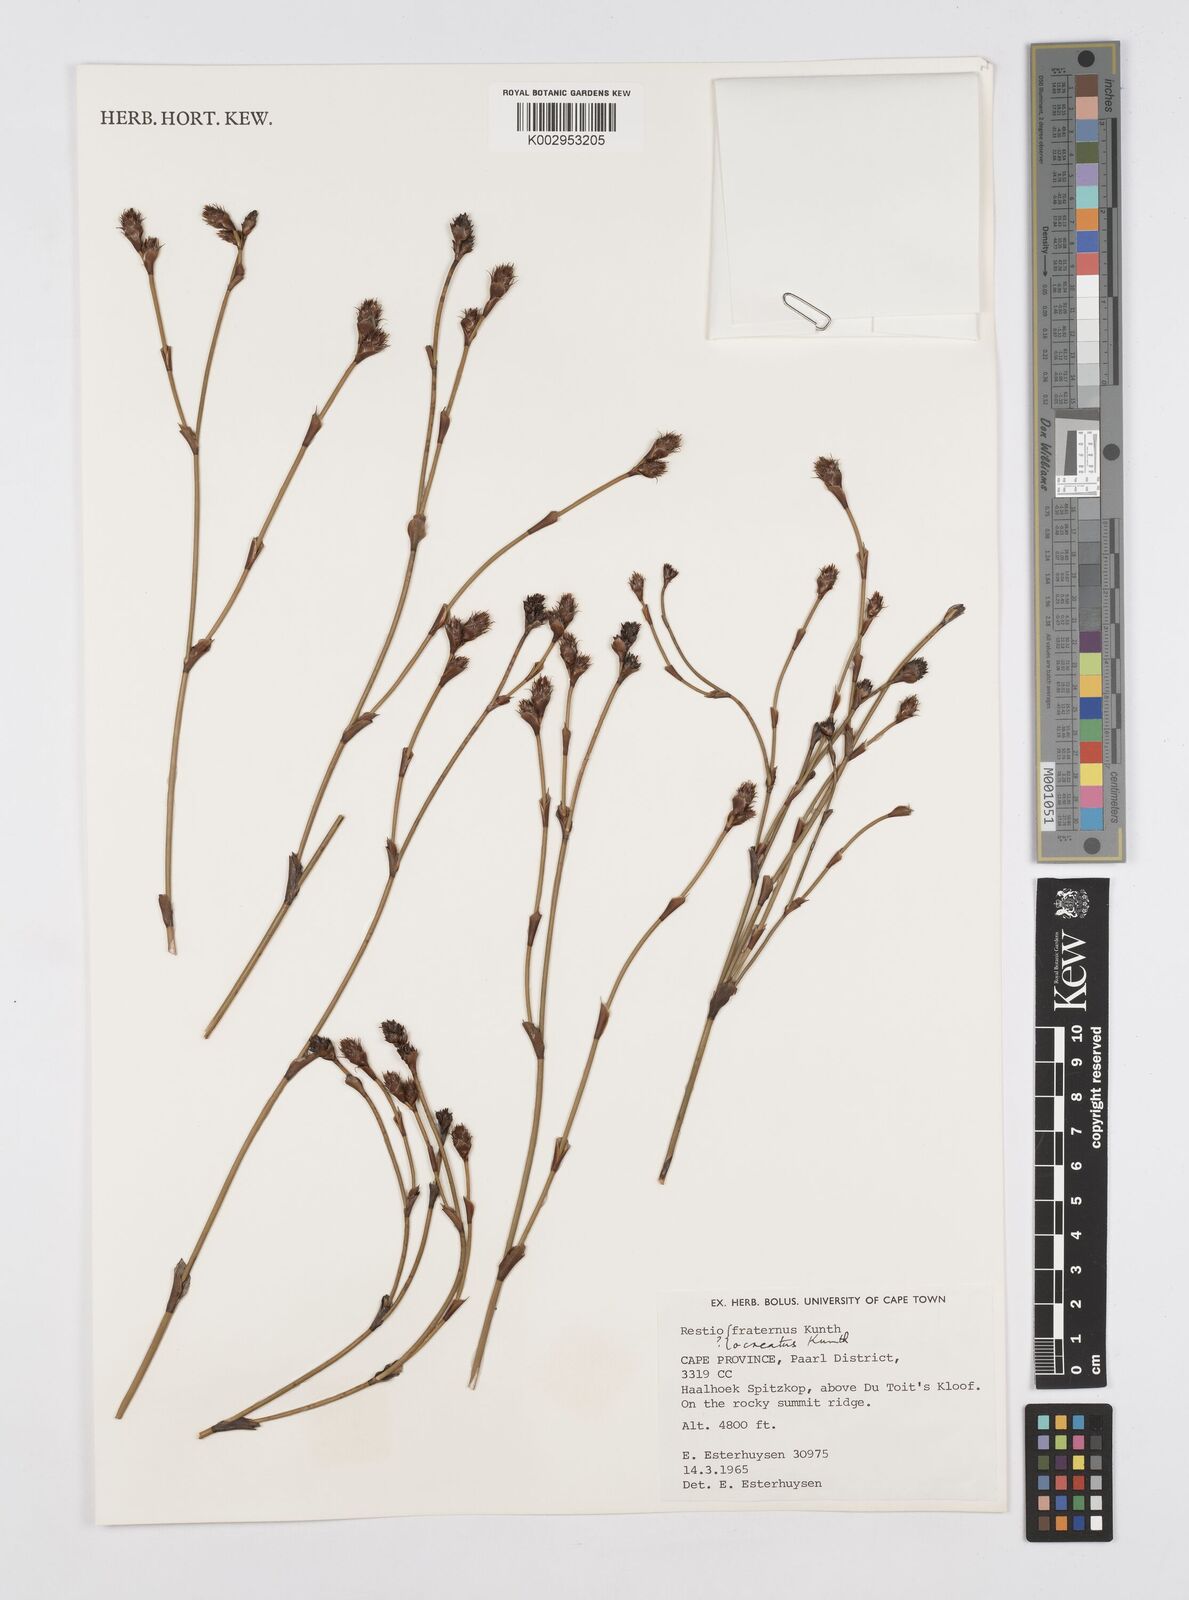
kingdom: Plantae
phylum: Tracheophyta
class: Liliopsida
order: Poales
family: Restionaceae
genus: Restio
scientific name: Restio fraternus
